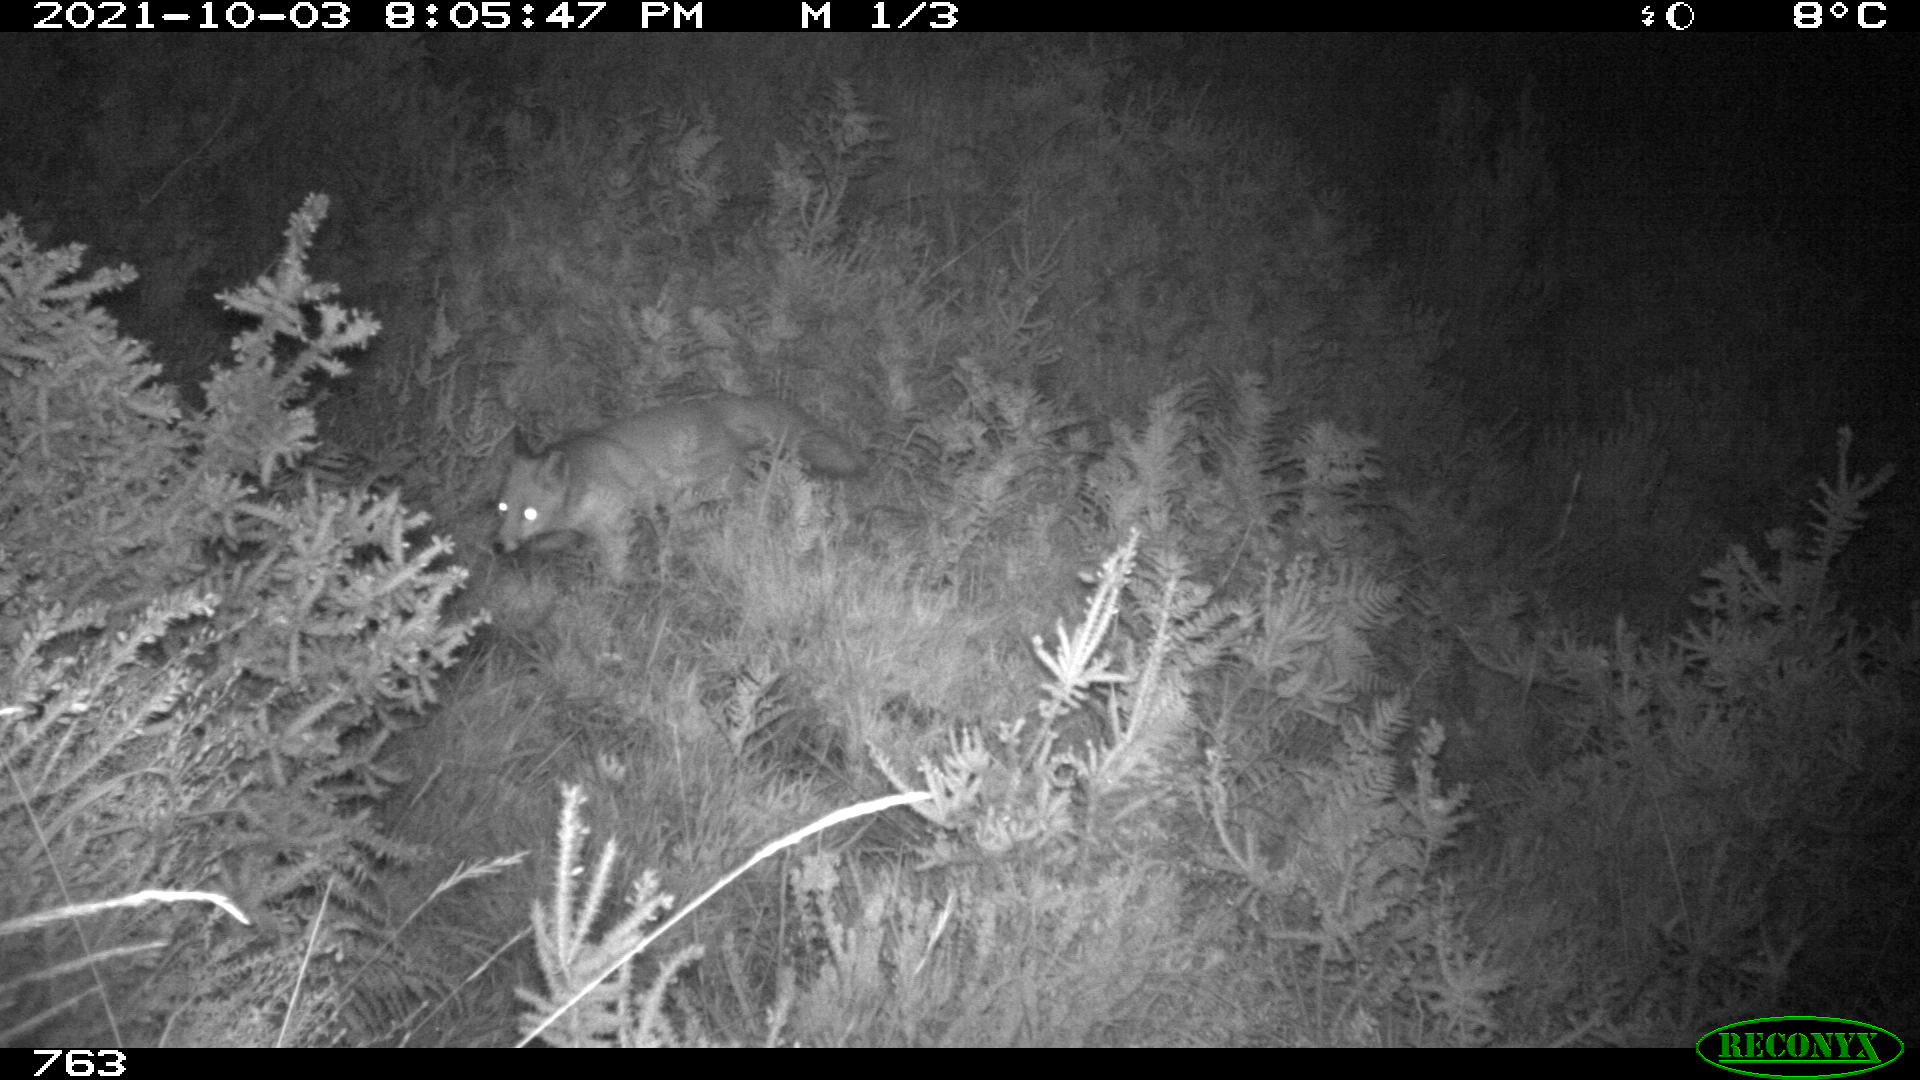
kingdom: Animalia
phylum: Chordata
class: Mammalia
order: Carnivora
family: Canidae
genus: Vulpes
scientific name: Vulpes vulpes
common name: Red fox
